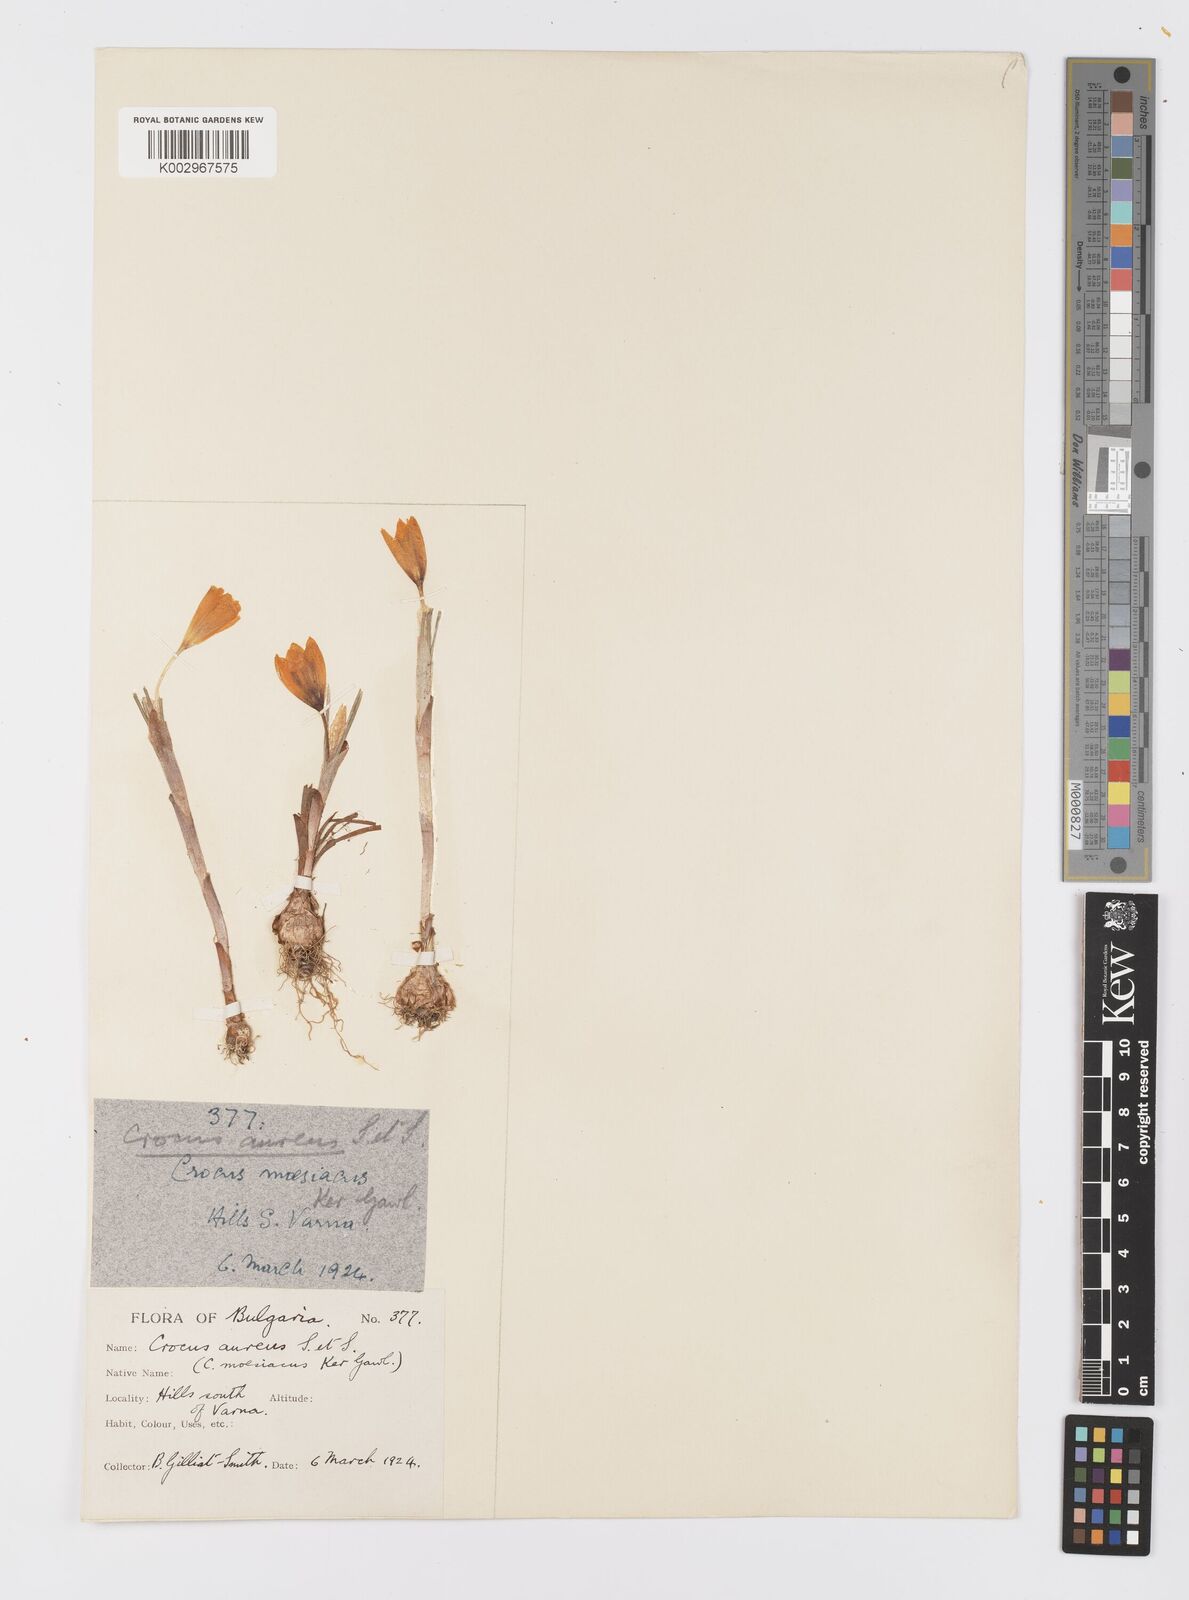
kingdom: Plantae
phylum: Tracheophyta
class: Liliopsida
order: Asparagales
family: Iridaceae
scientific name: Iridaceae
